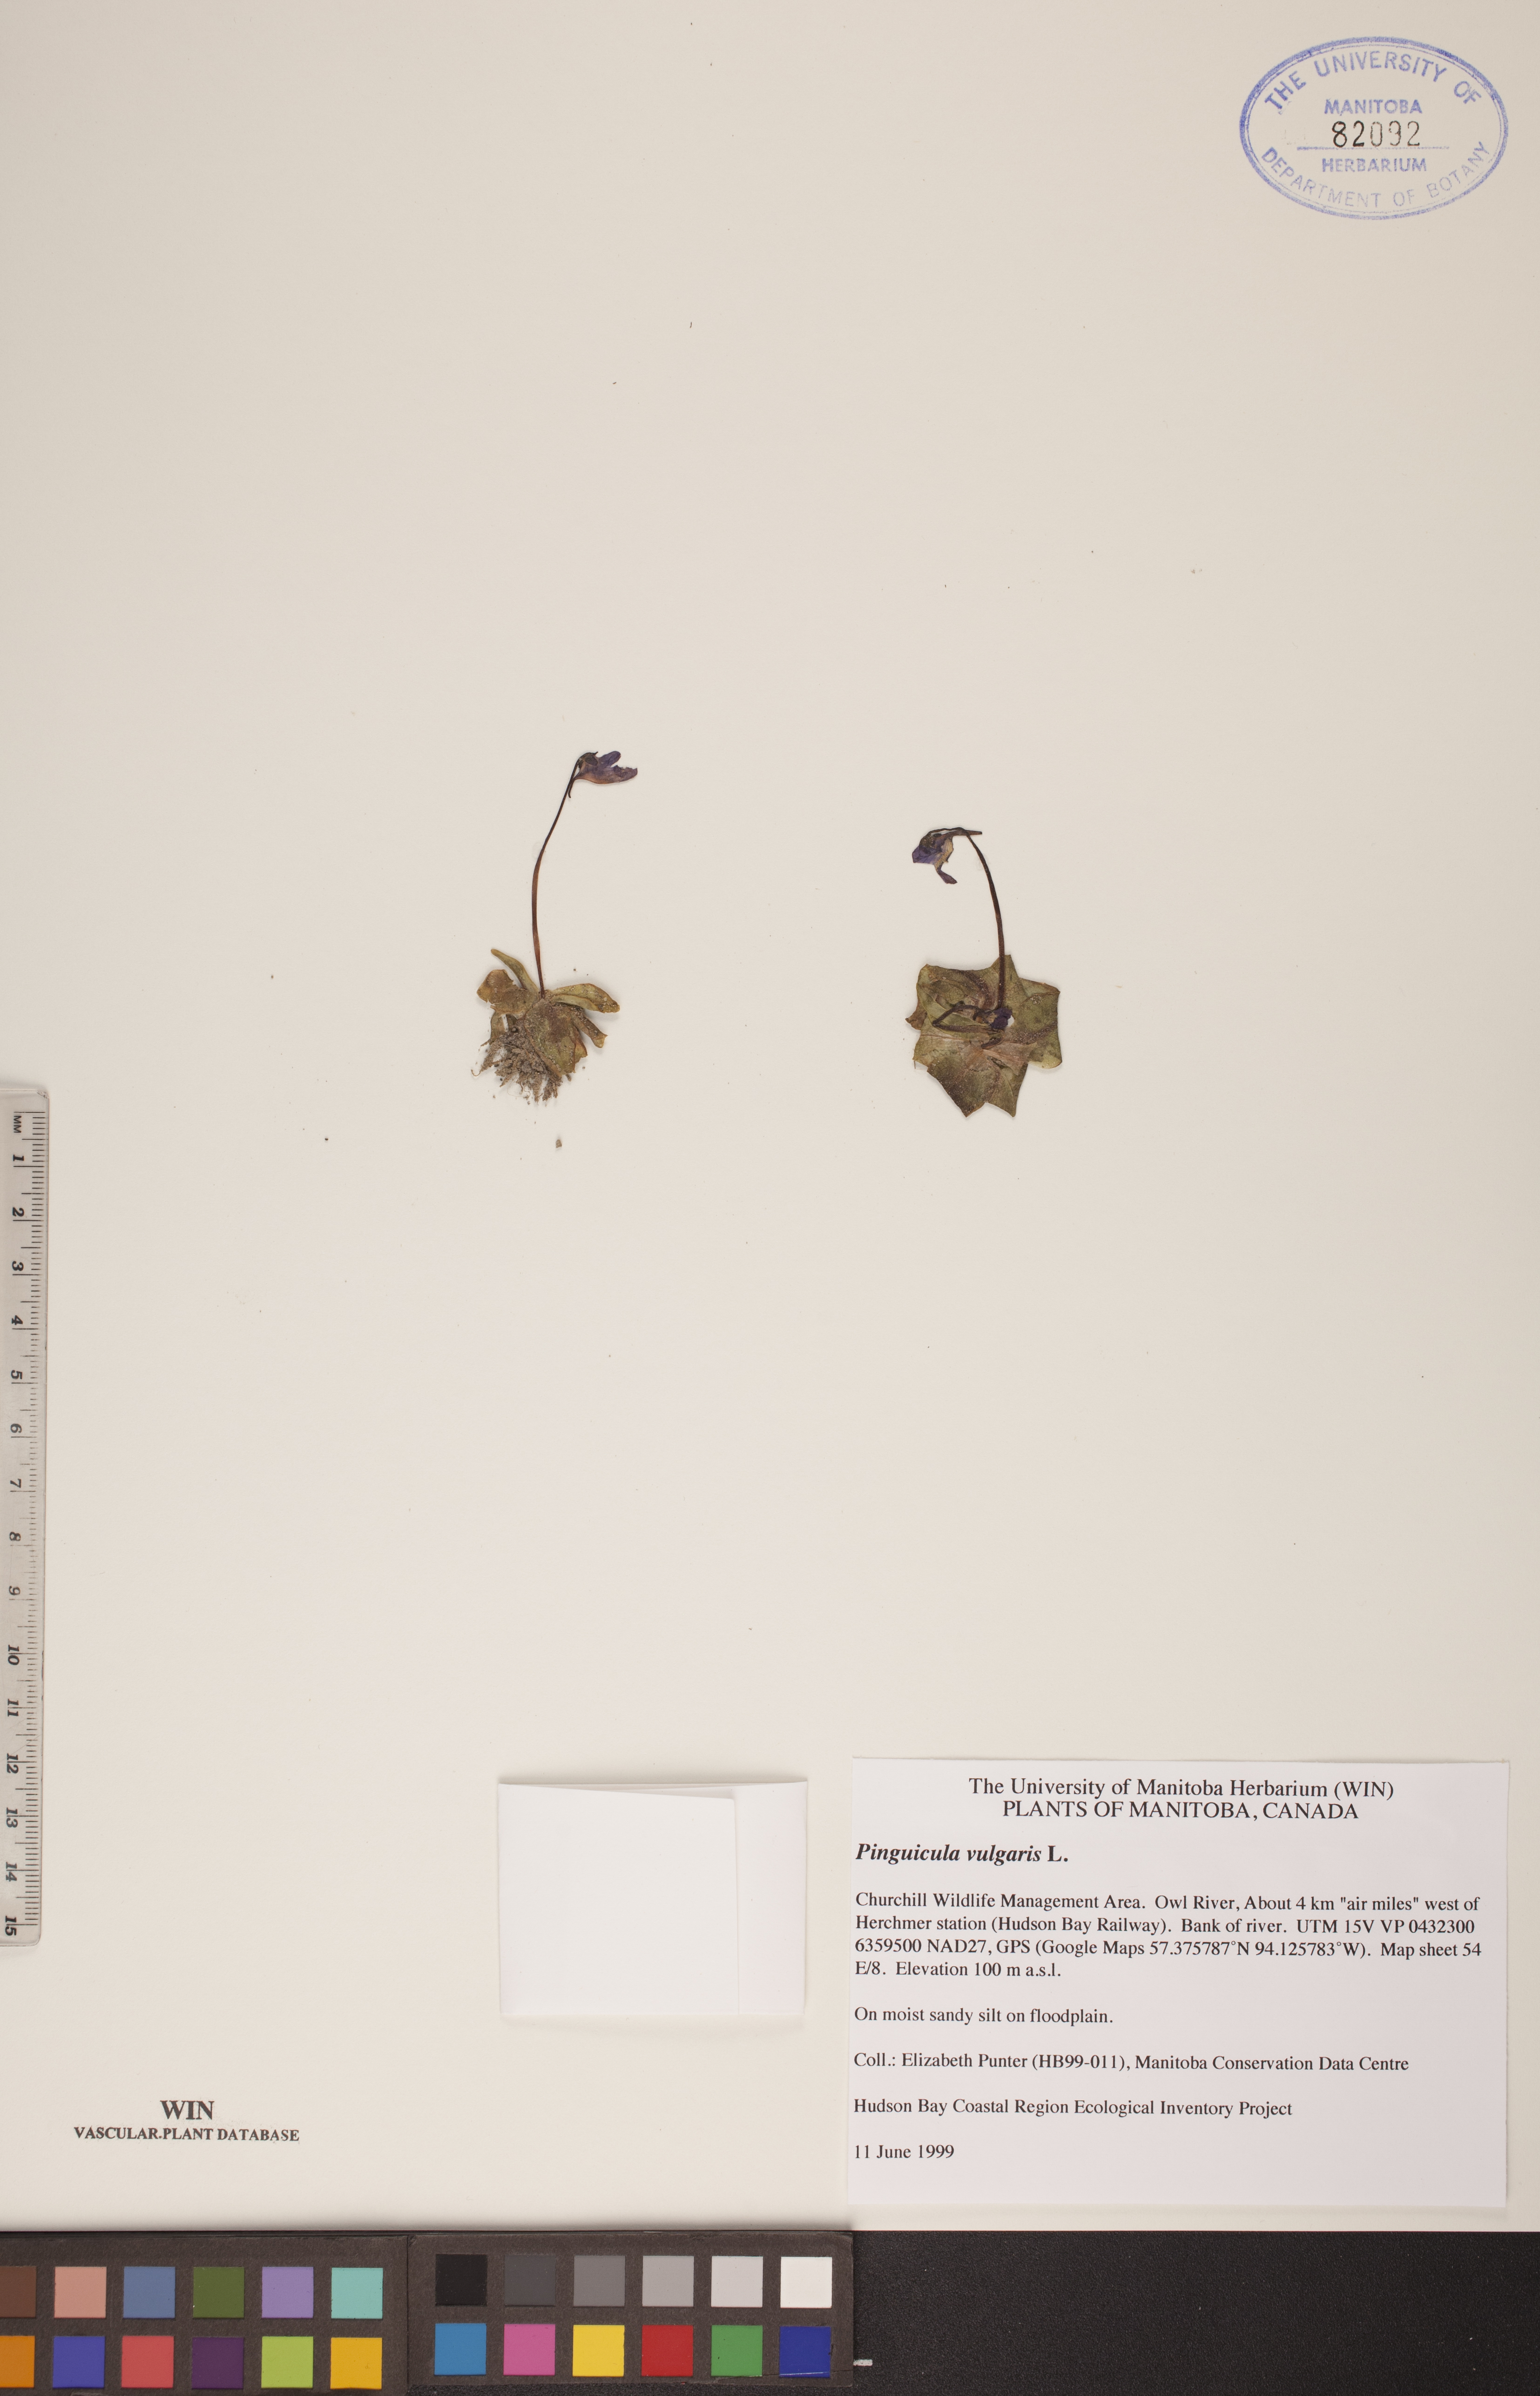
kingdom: Plantae
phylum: Tracheophyta
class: Magnoliopsida
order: Lamiales
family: Lentibulariaceae
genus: Pinguicula
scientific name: Pinguicula vulgaris
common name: Common butterwort
